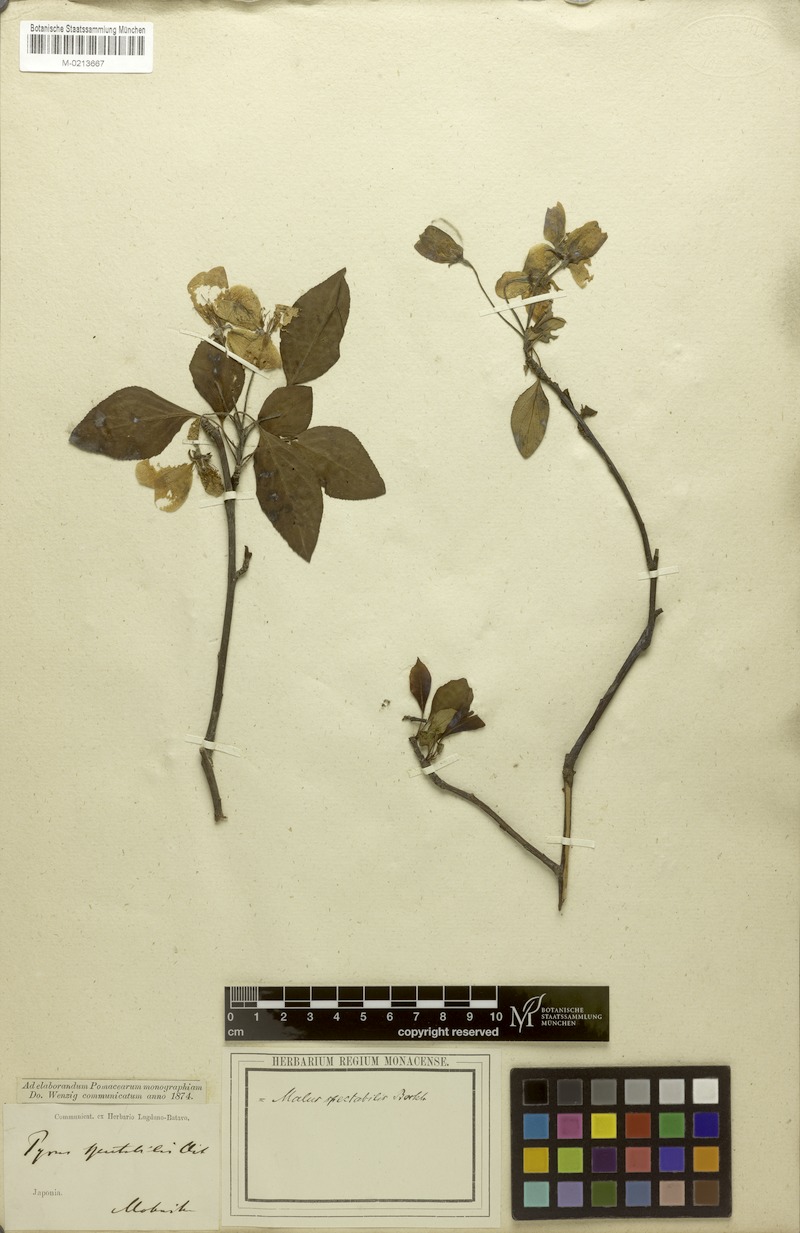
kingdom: Plantae
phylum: Tracheophyta
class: Magnoliopsida
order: Rosales
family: Rosaceae
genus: Malus
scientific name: Malus spectabilis
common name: Asiatic apple
